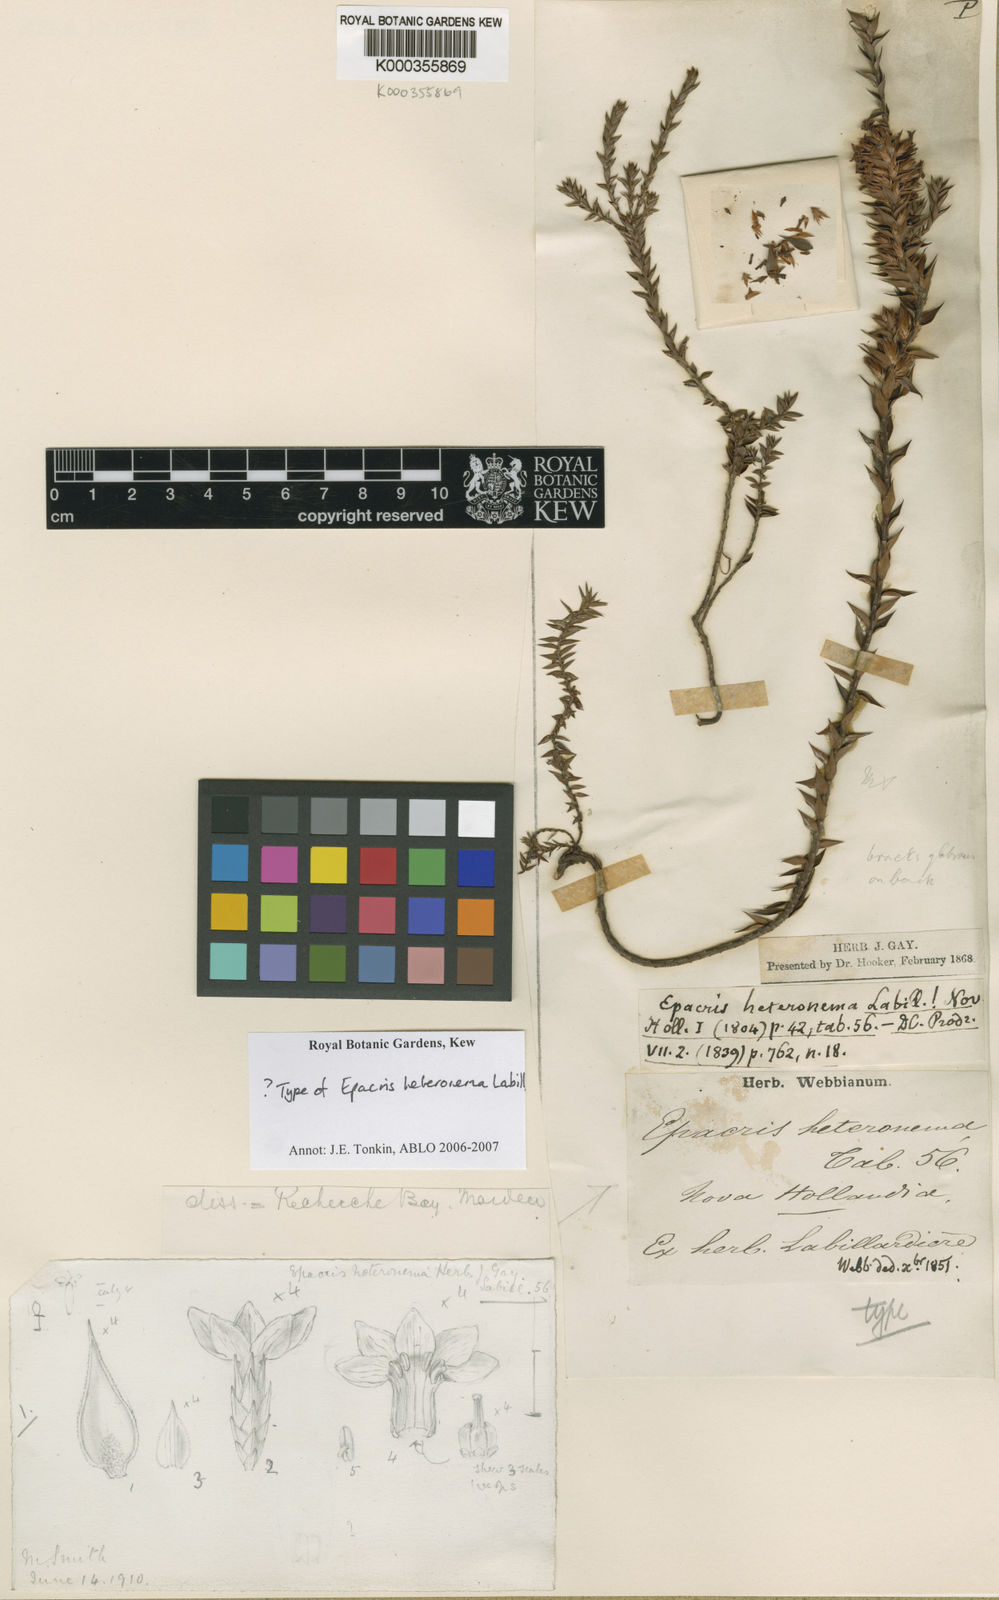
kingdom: Plantae
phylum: Tracheophyta
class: Magnoliopsida
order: Ericales
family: Ericaceae
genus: Epacris
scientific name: Epacris heteronema
